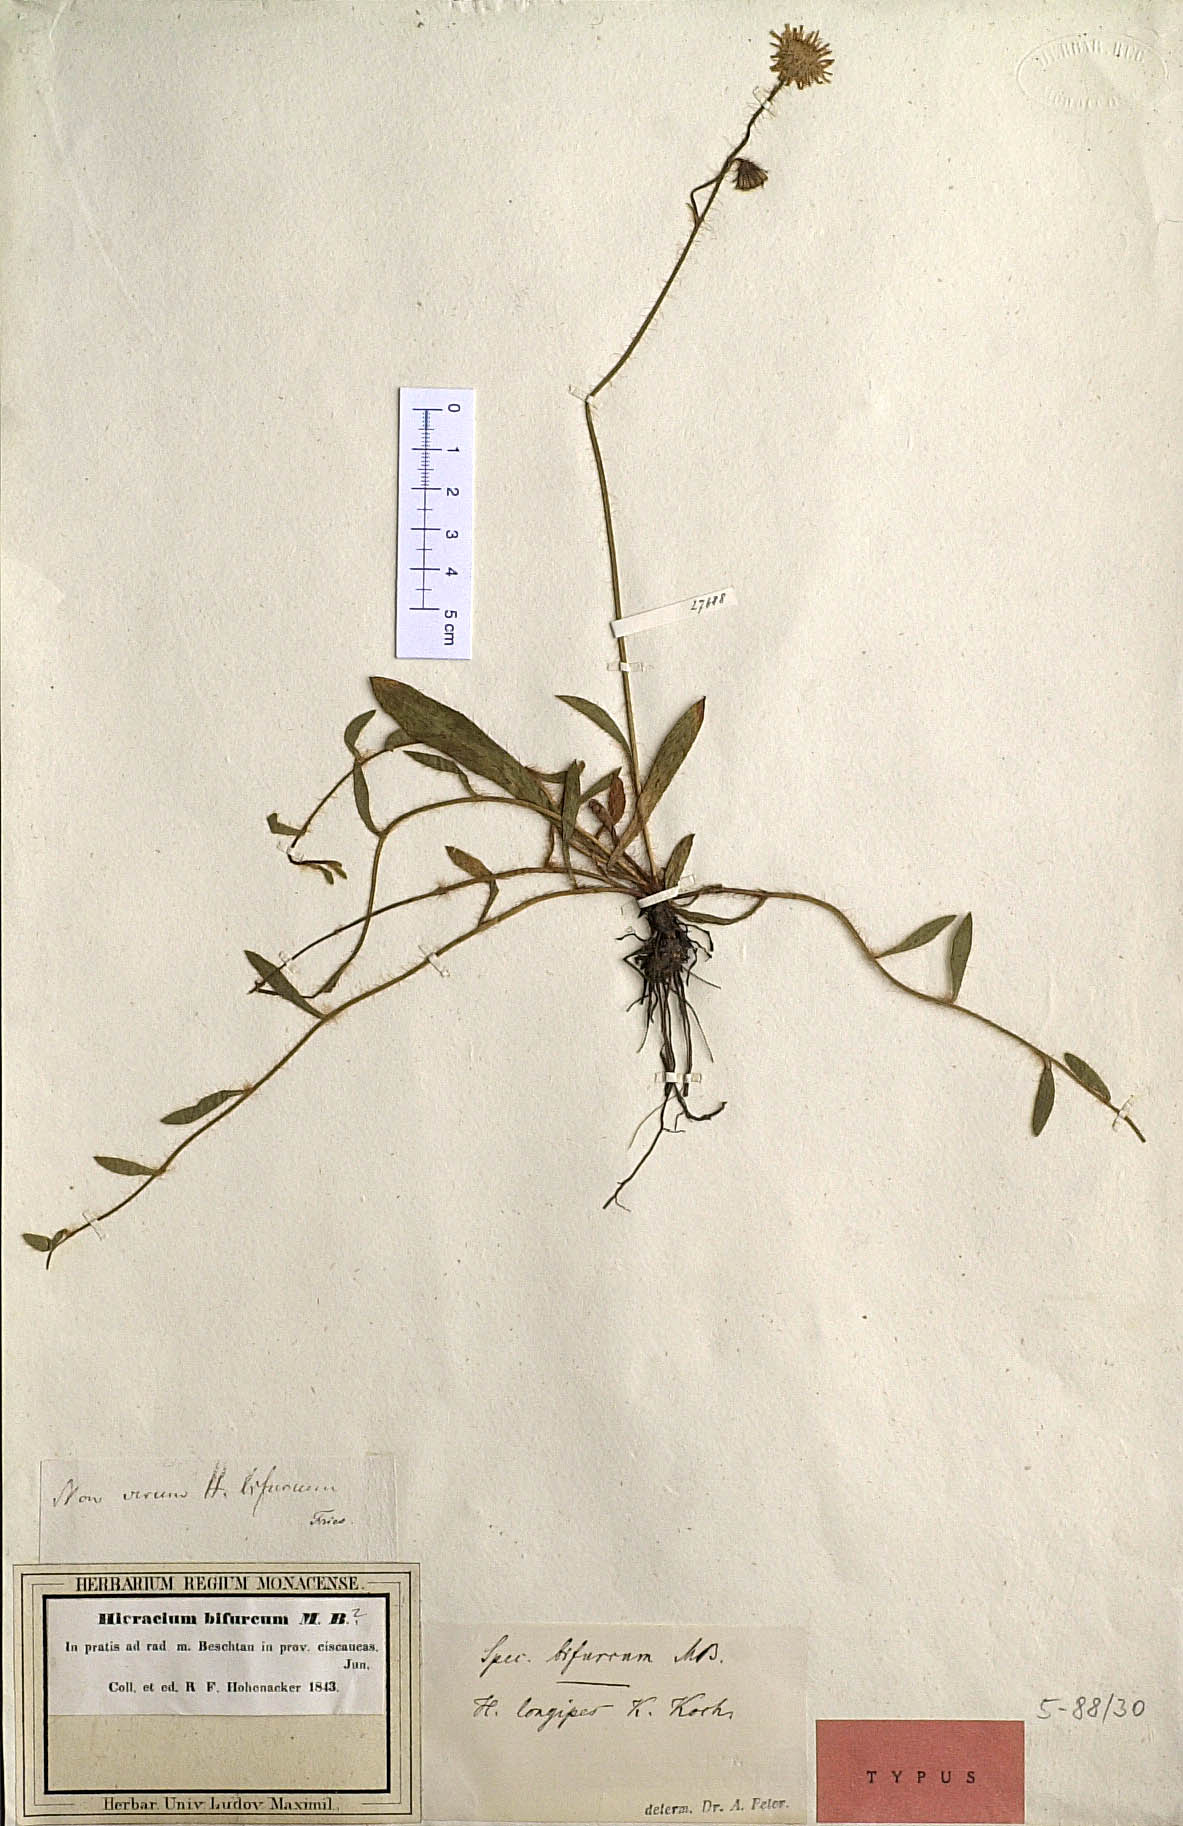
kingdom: Plantae
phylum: Tracheophyta
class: Magnoliopsida
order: Asterales
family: Asteraceae
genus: Pilosella
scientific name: Pilosella bifurca
